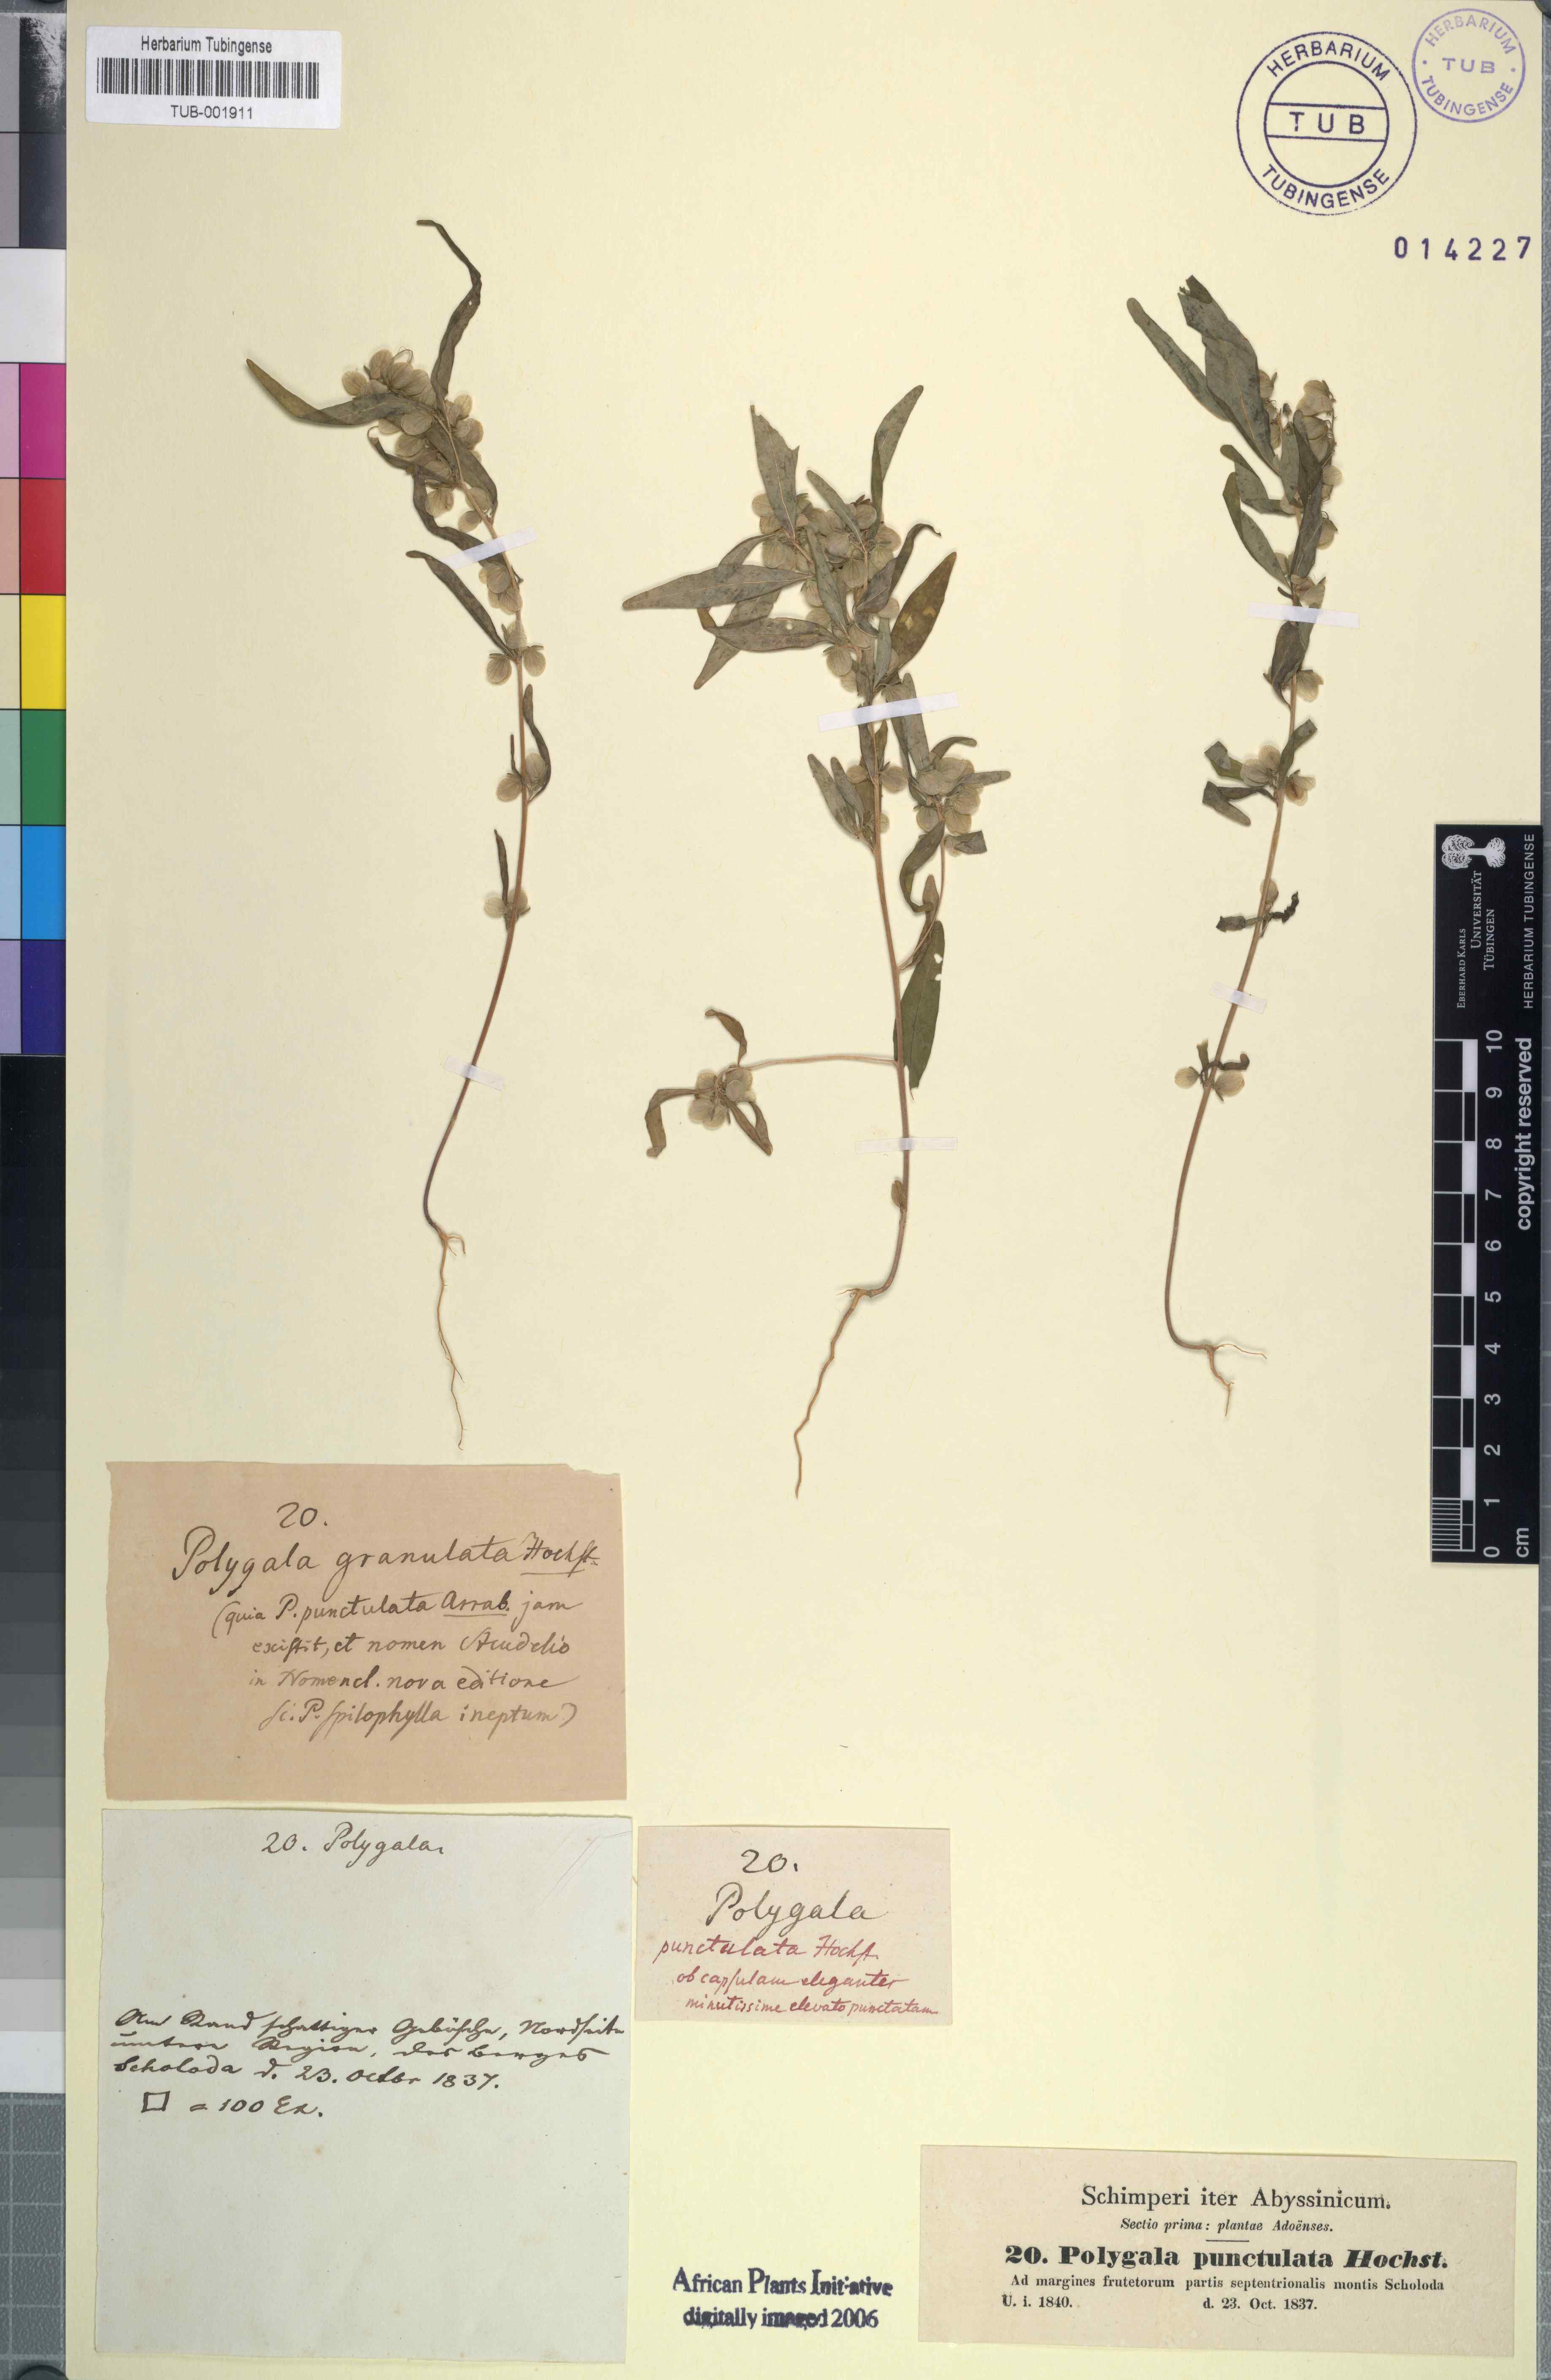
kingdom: Plantae
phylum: Tracheophyta
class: Magnoliopsida
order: Fabales
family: Polygalaceae
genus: Polygala
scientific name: Polygala sphenoptera
